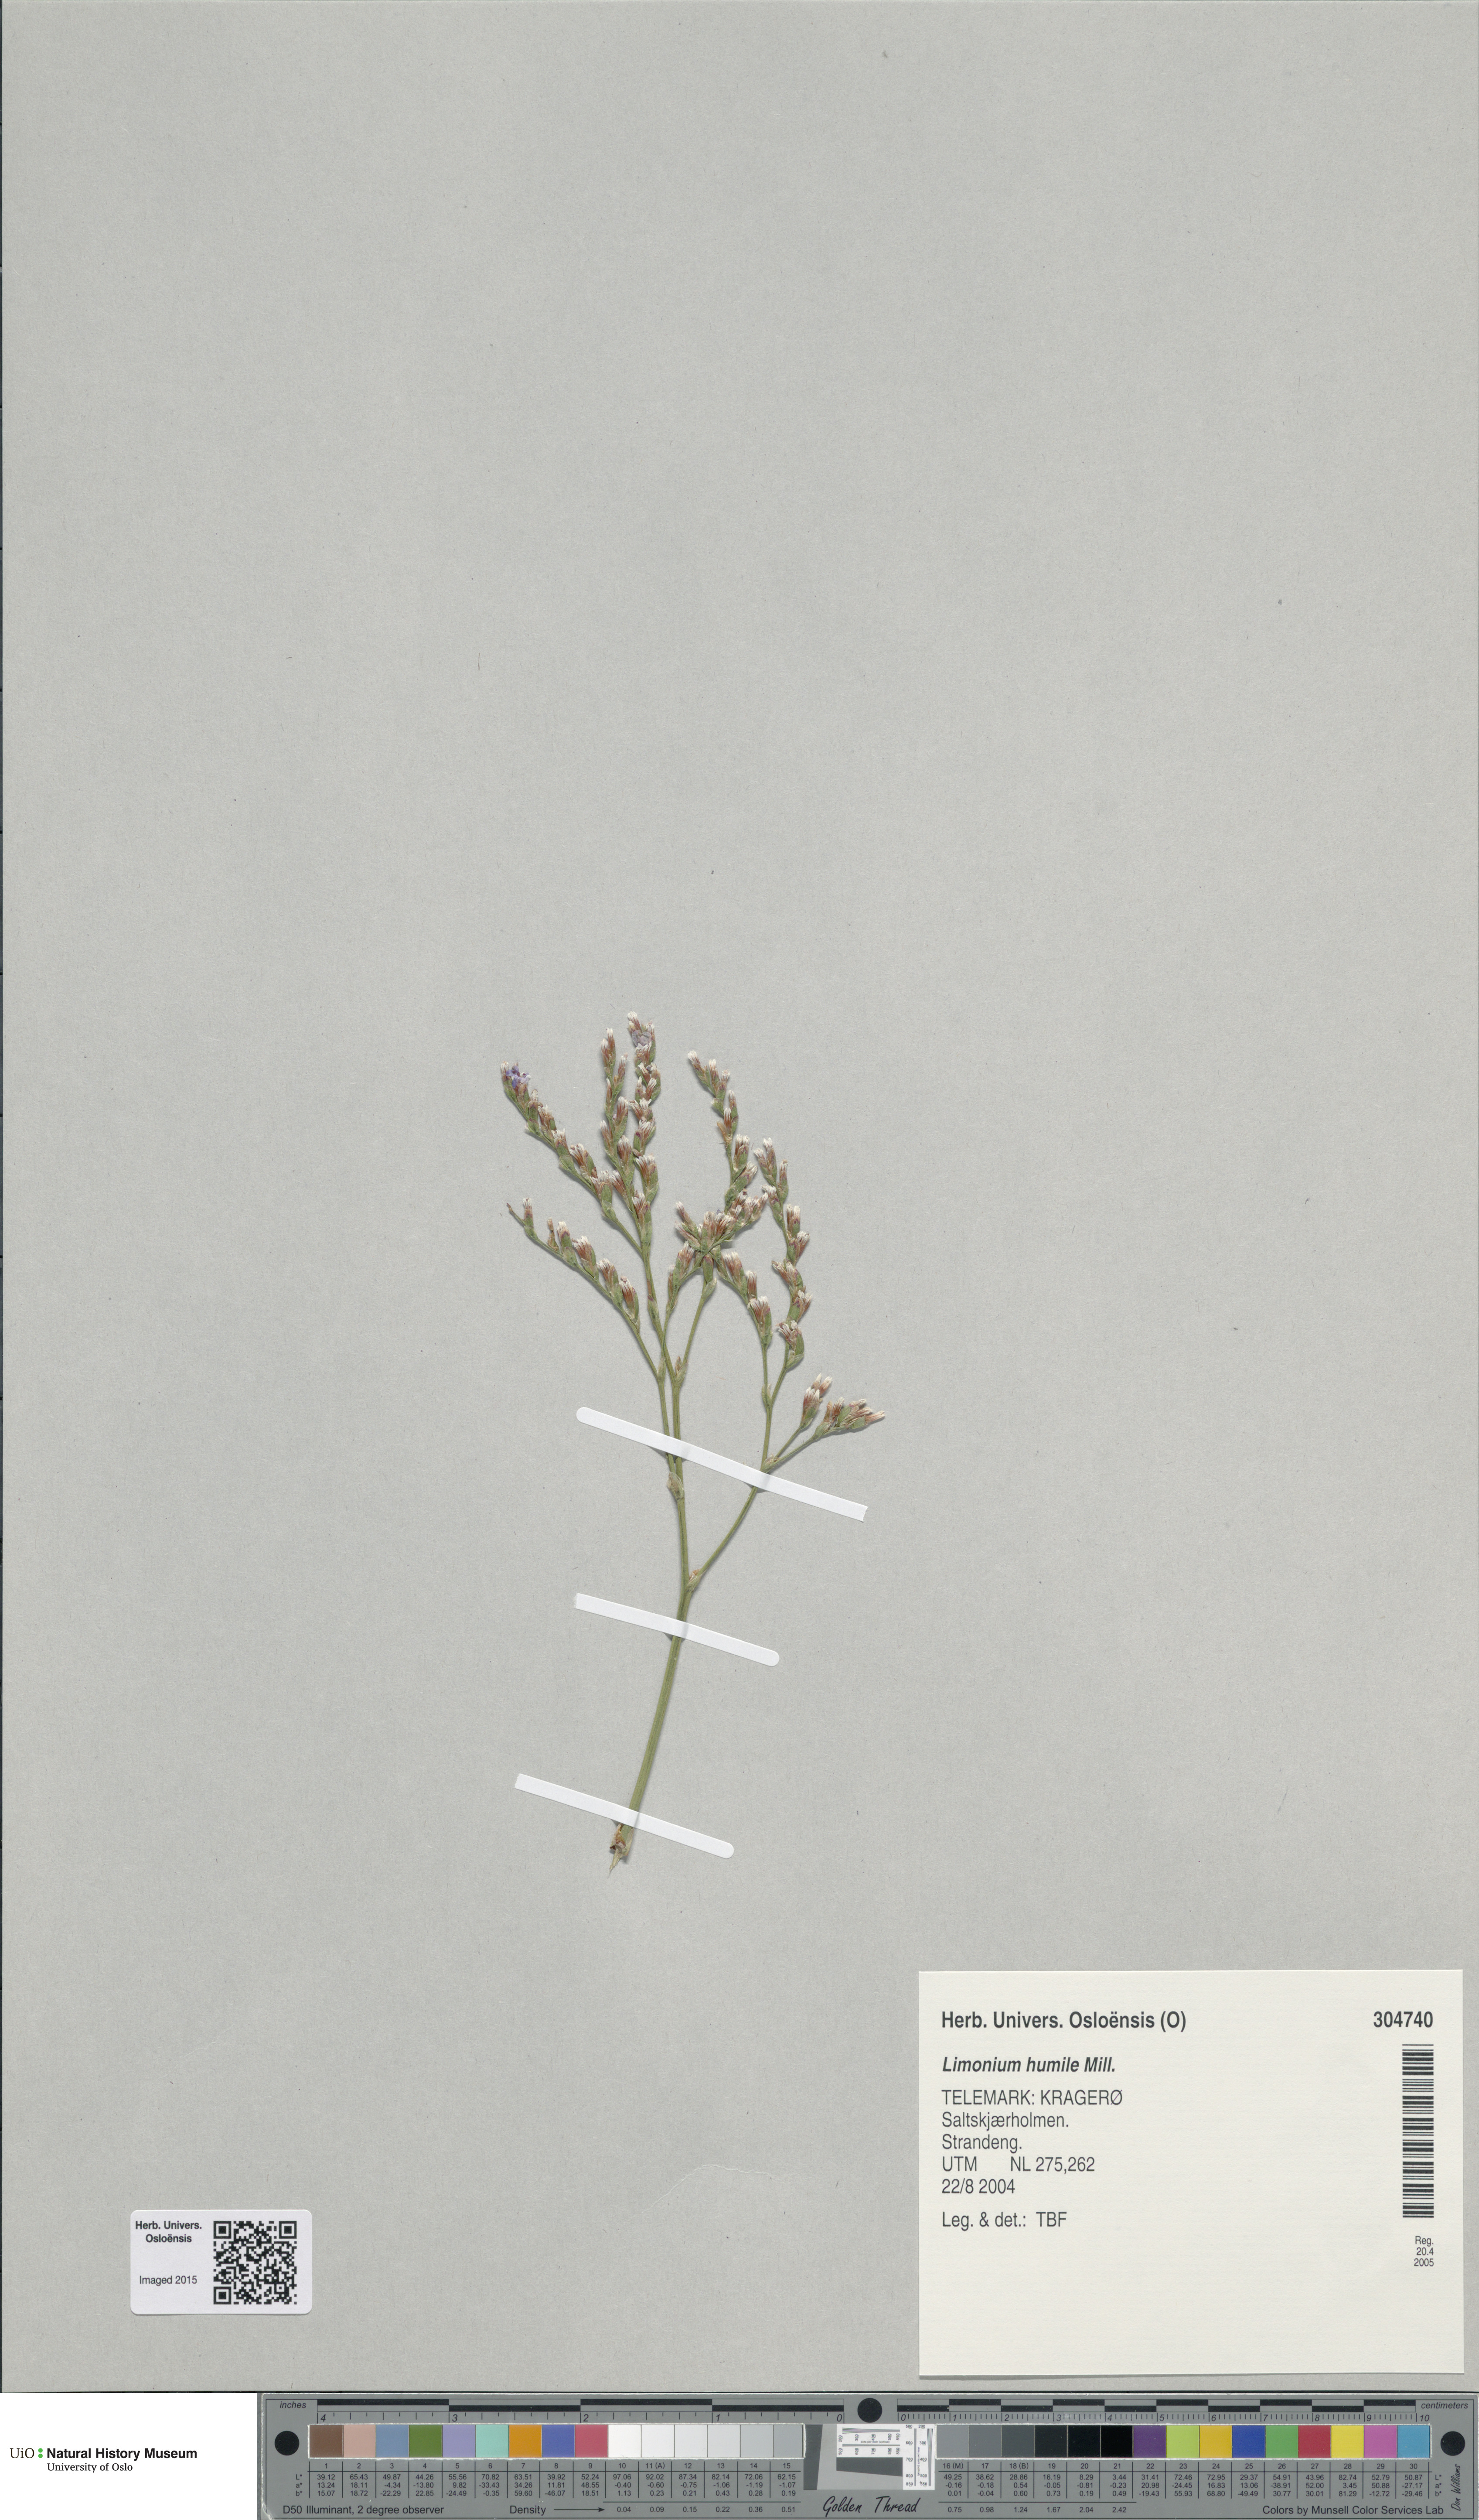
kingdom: Plantae
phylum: Tracheophyta
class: Magnoliopsida
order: Caryophyllales
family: Plumbaginaceae
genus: Limonium
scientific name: Limonium humile
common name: Lax-flowered sea-lavender
